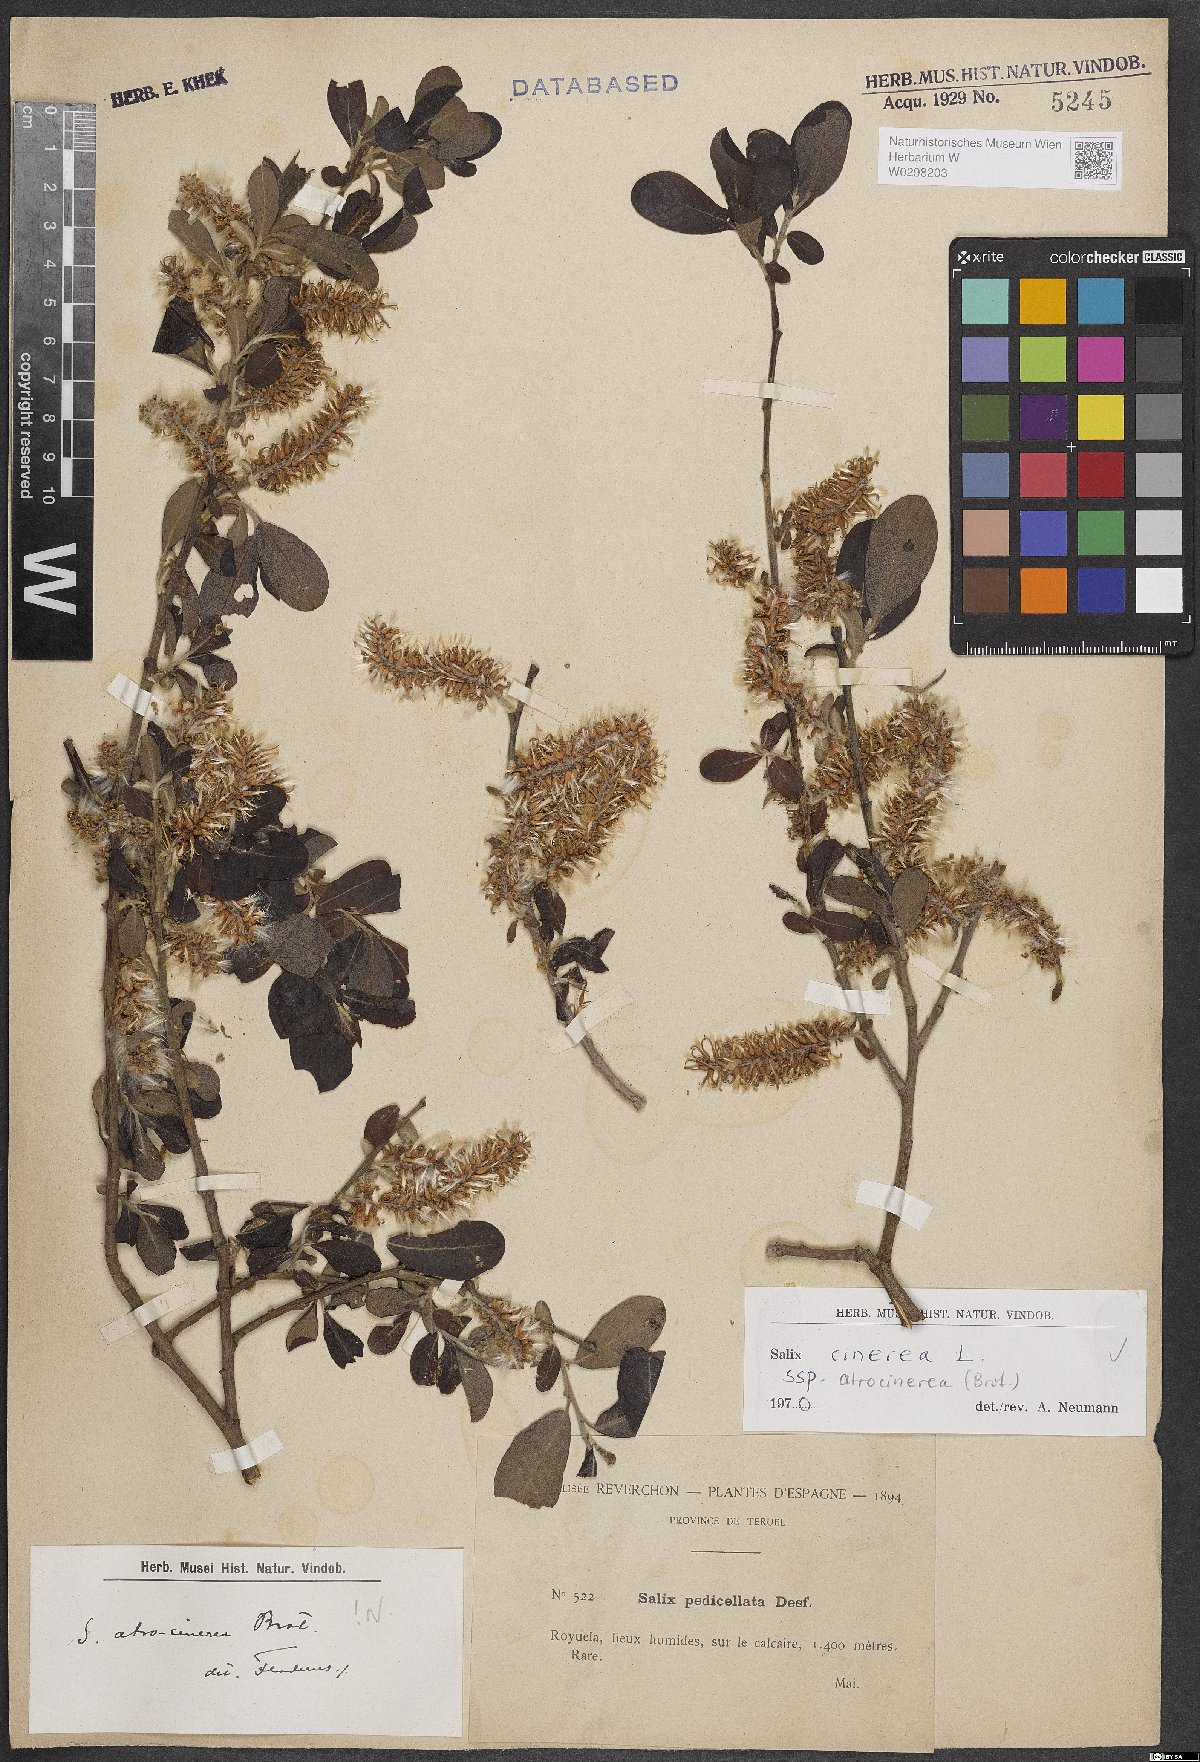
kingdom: Plantae
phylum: Tracheophyta
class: Magnoliopsida
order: Malpighiales
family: Salicaceae
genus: Salix
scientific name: Salix atrocinerea
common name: Rusty willow
